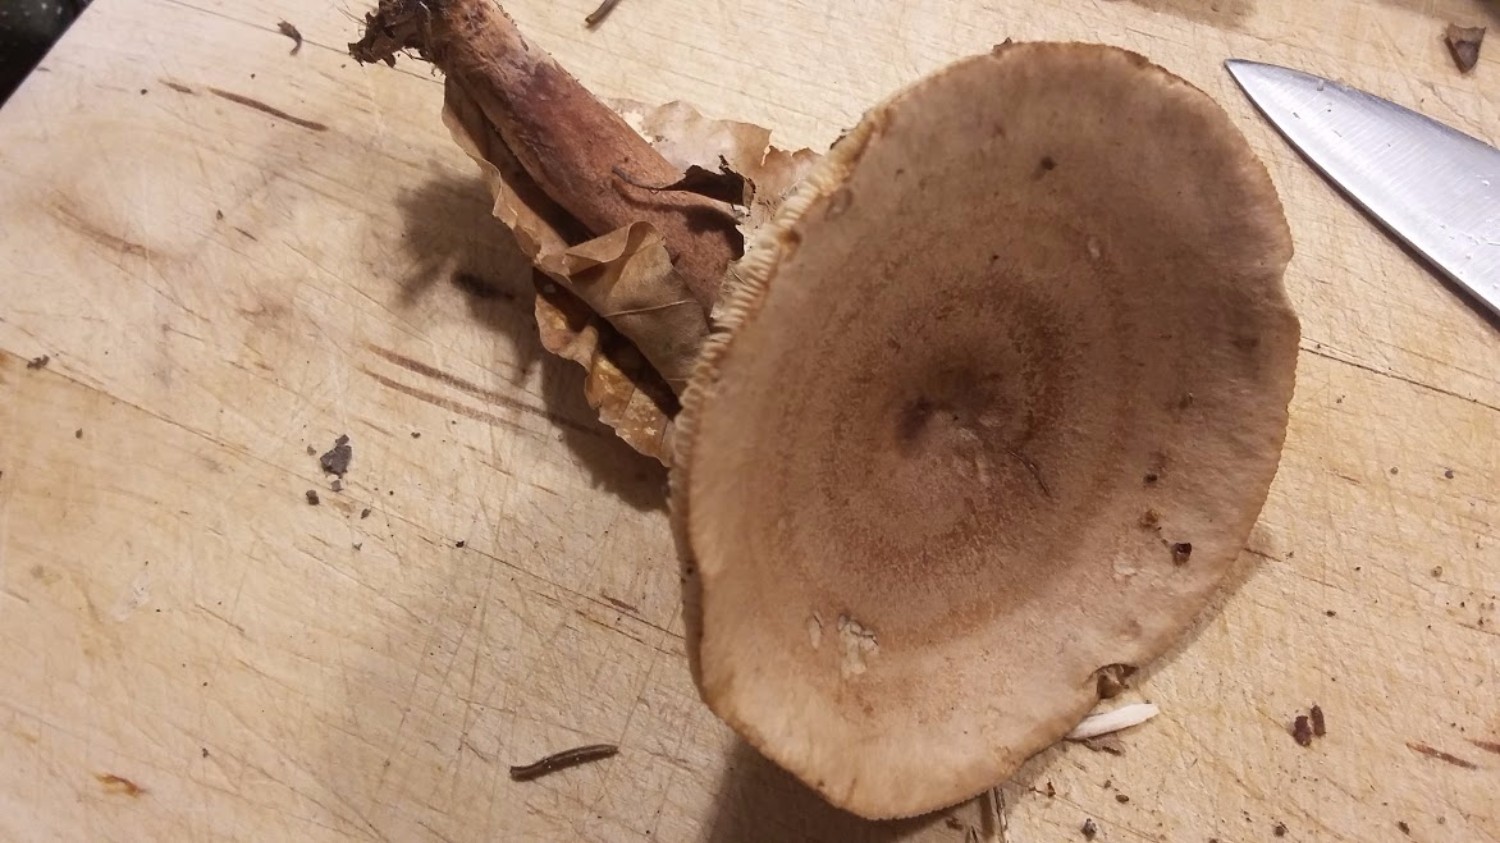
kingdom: Fungi
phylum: Basidiomycota
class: Agaricomycetes
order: Russulales
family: Russulaceae
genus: Lactarius
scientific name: Lactarius quietus
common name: ege-mælkehat
